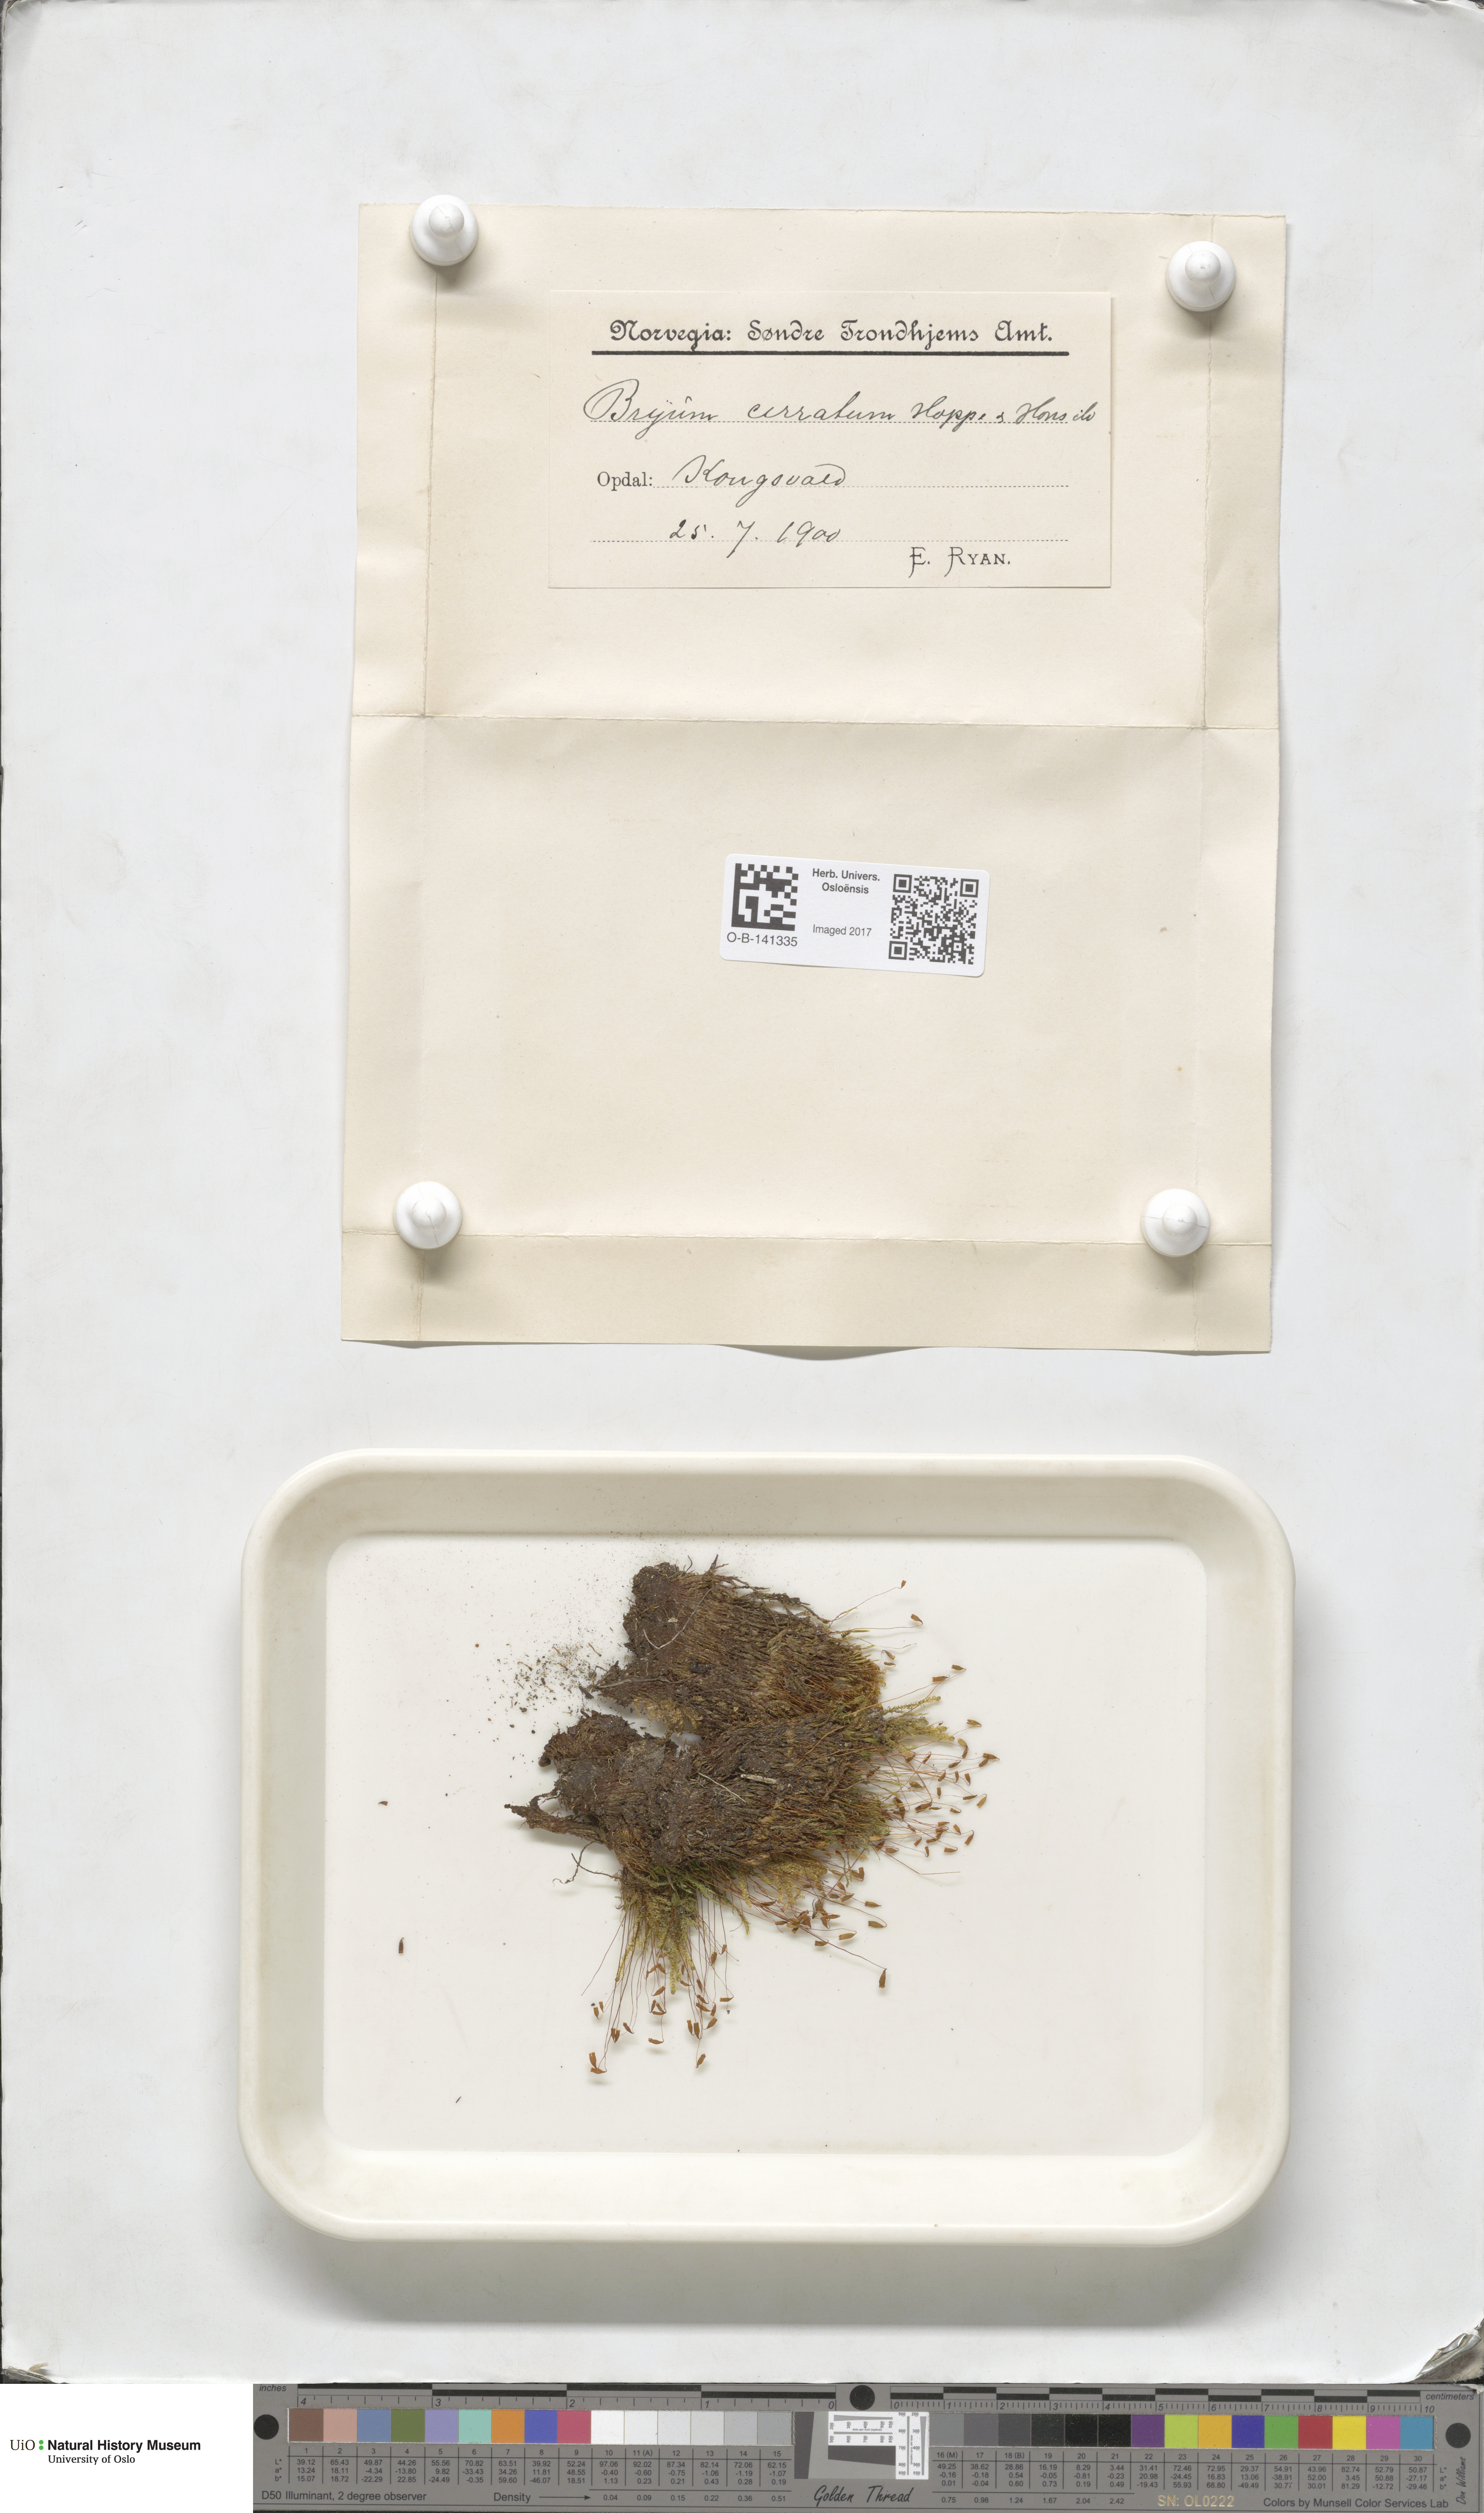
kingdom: Plantae
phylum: Bryophyta
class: Bryopsida
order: Bryales
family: Bryaceae
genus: Ptychostomum
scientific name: Ptychostomum pallescens
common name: Tall-clustered thread-moss
